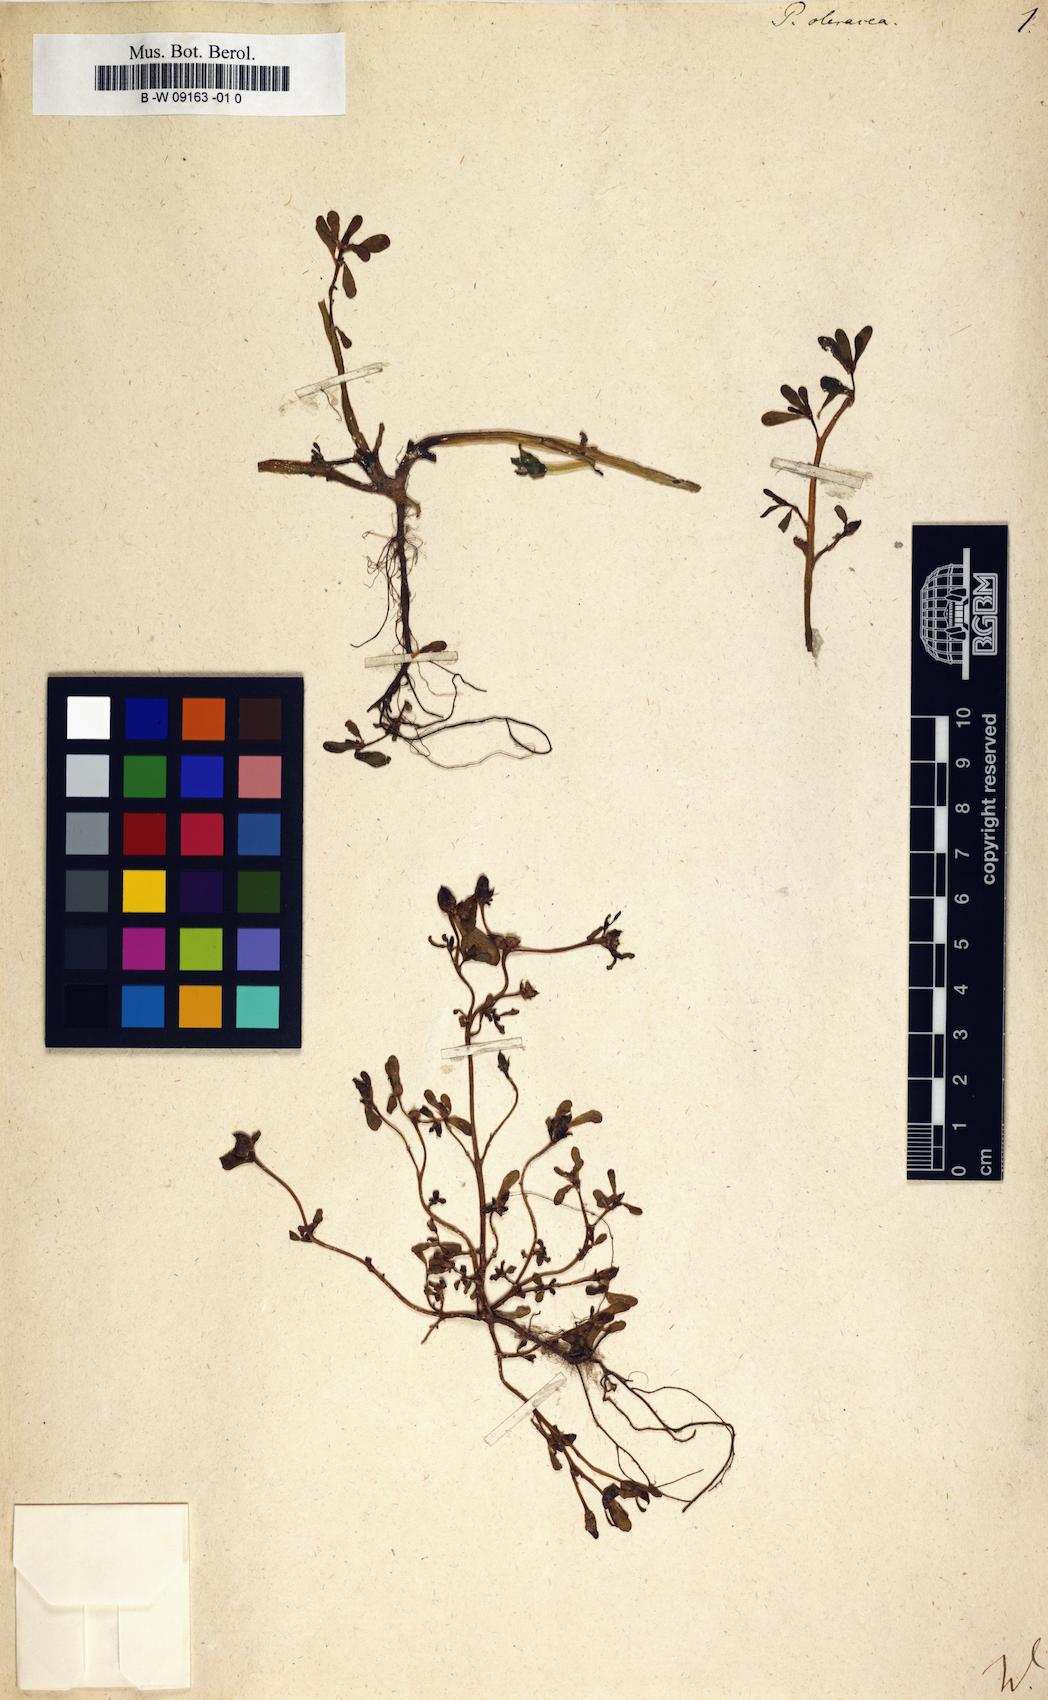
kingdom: Plantae
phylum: Tracheophyta
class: Magnoliopsida
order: Caryophyllales
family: Portulacaceae
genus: Portulaca
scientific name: Portulaca oleracea
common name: Common purslane
